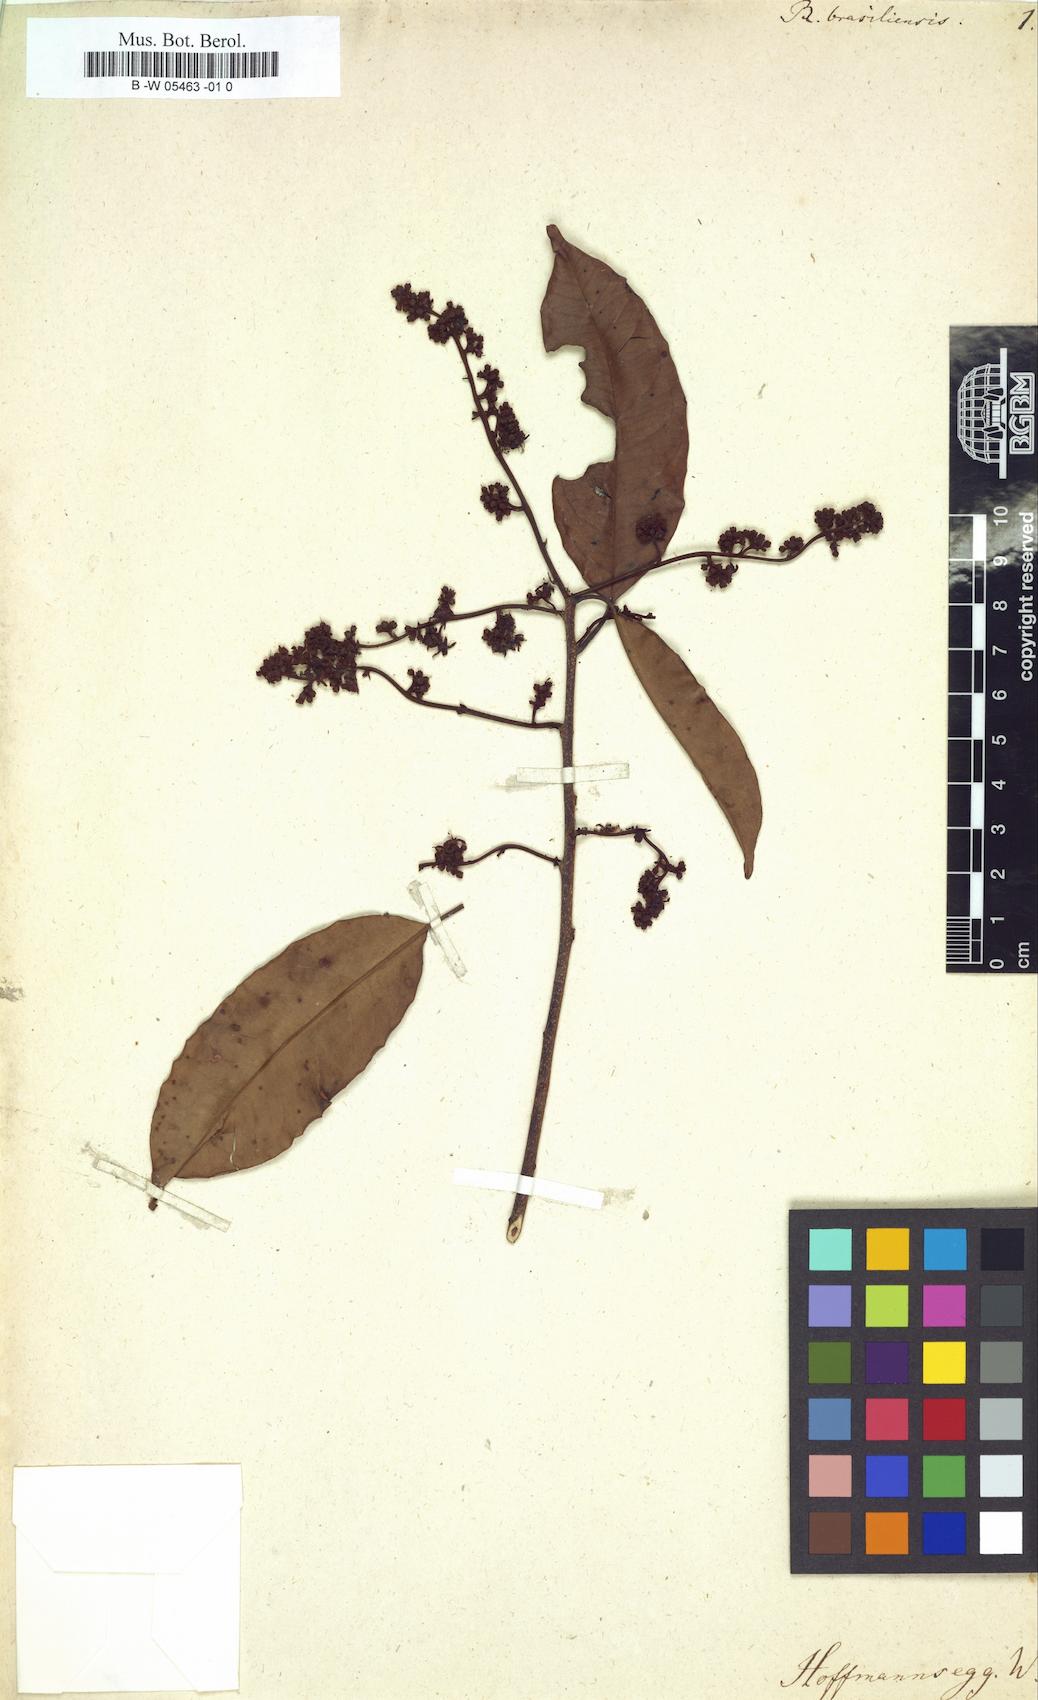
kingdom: Plantae
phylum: Tracheophyta
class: Magnoliopsida
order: Boraginales
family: Ehretiaceae
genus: Rochefortia
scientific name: Rochefortia brasiliensis
